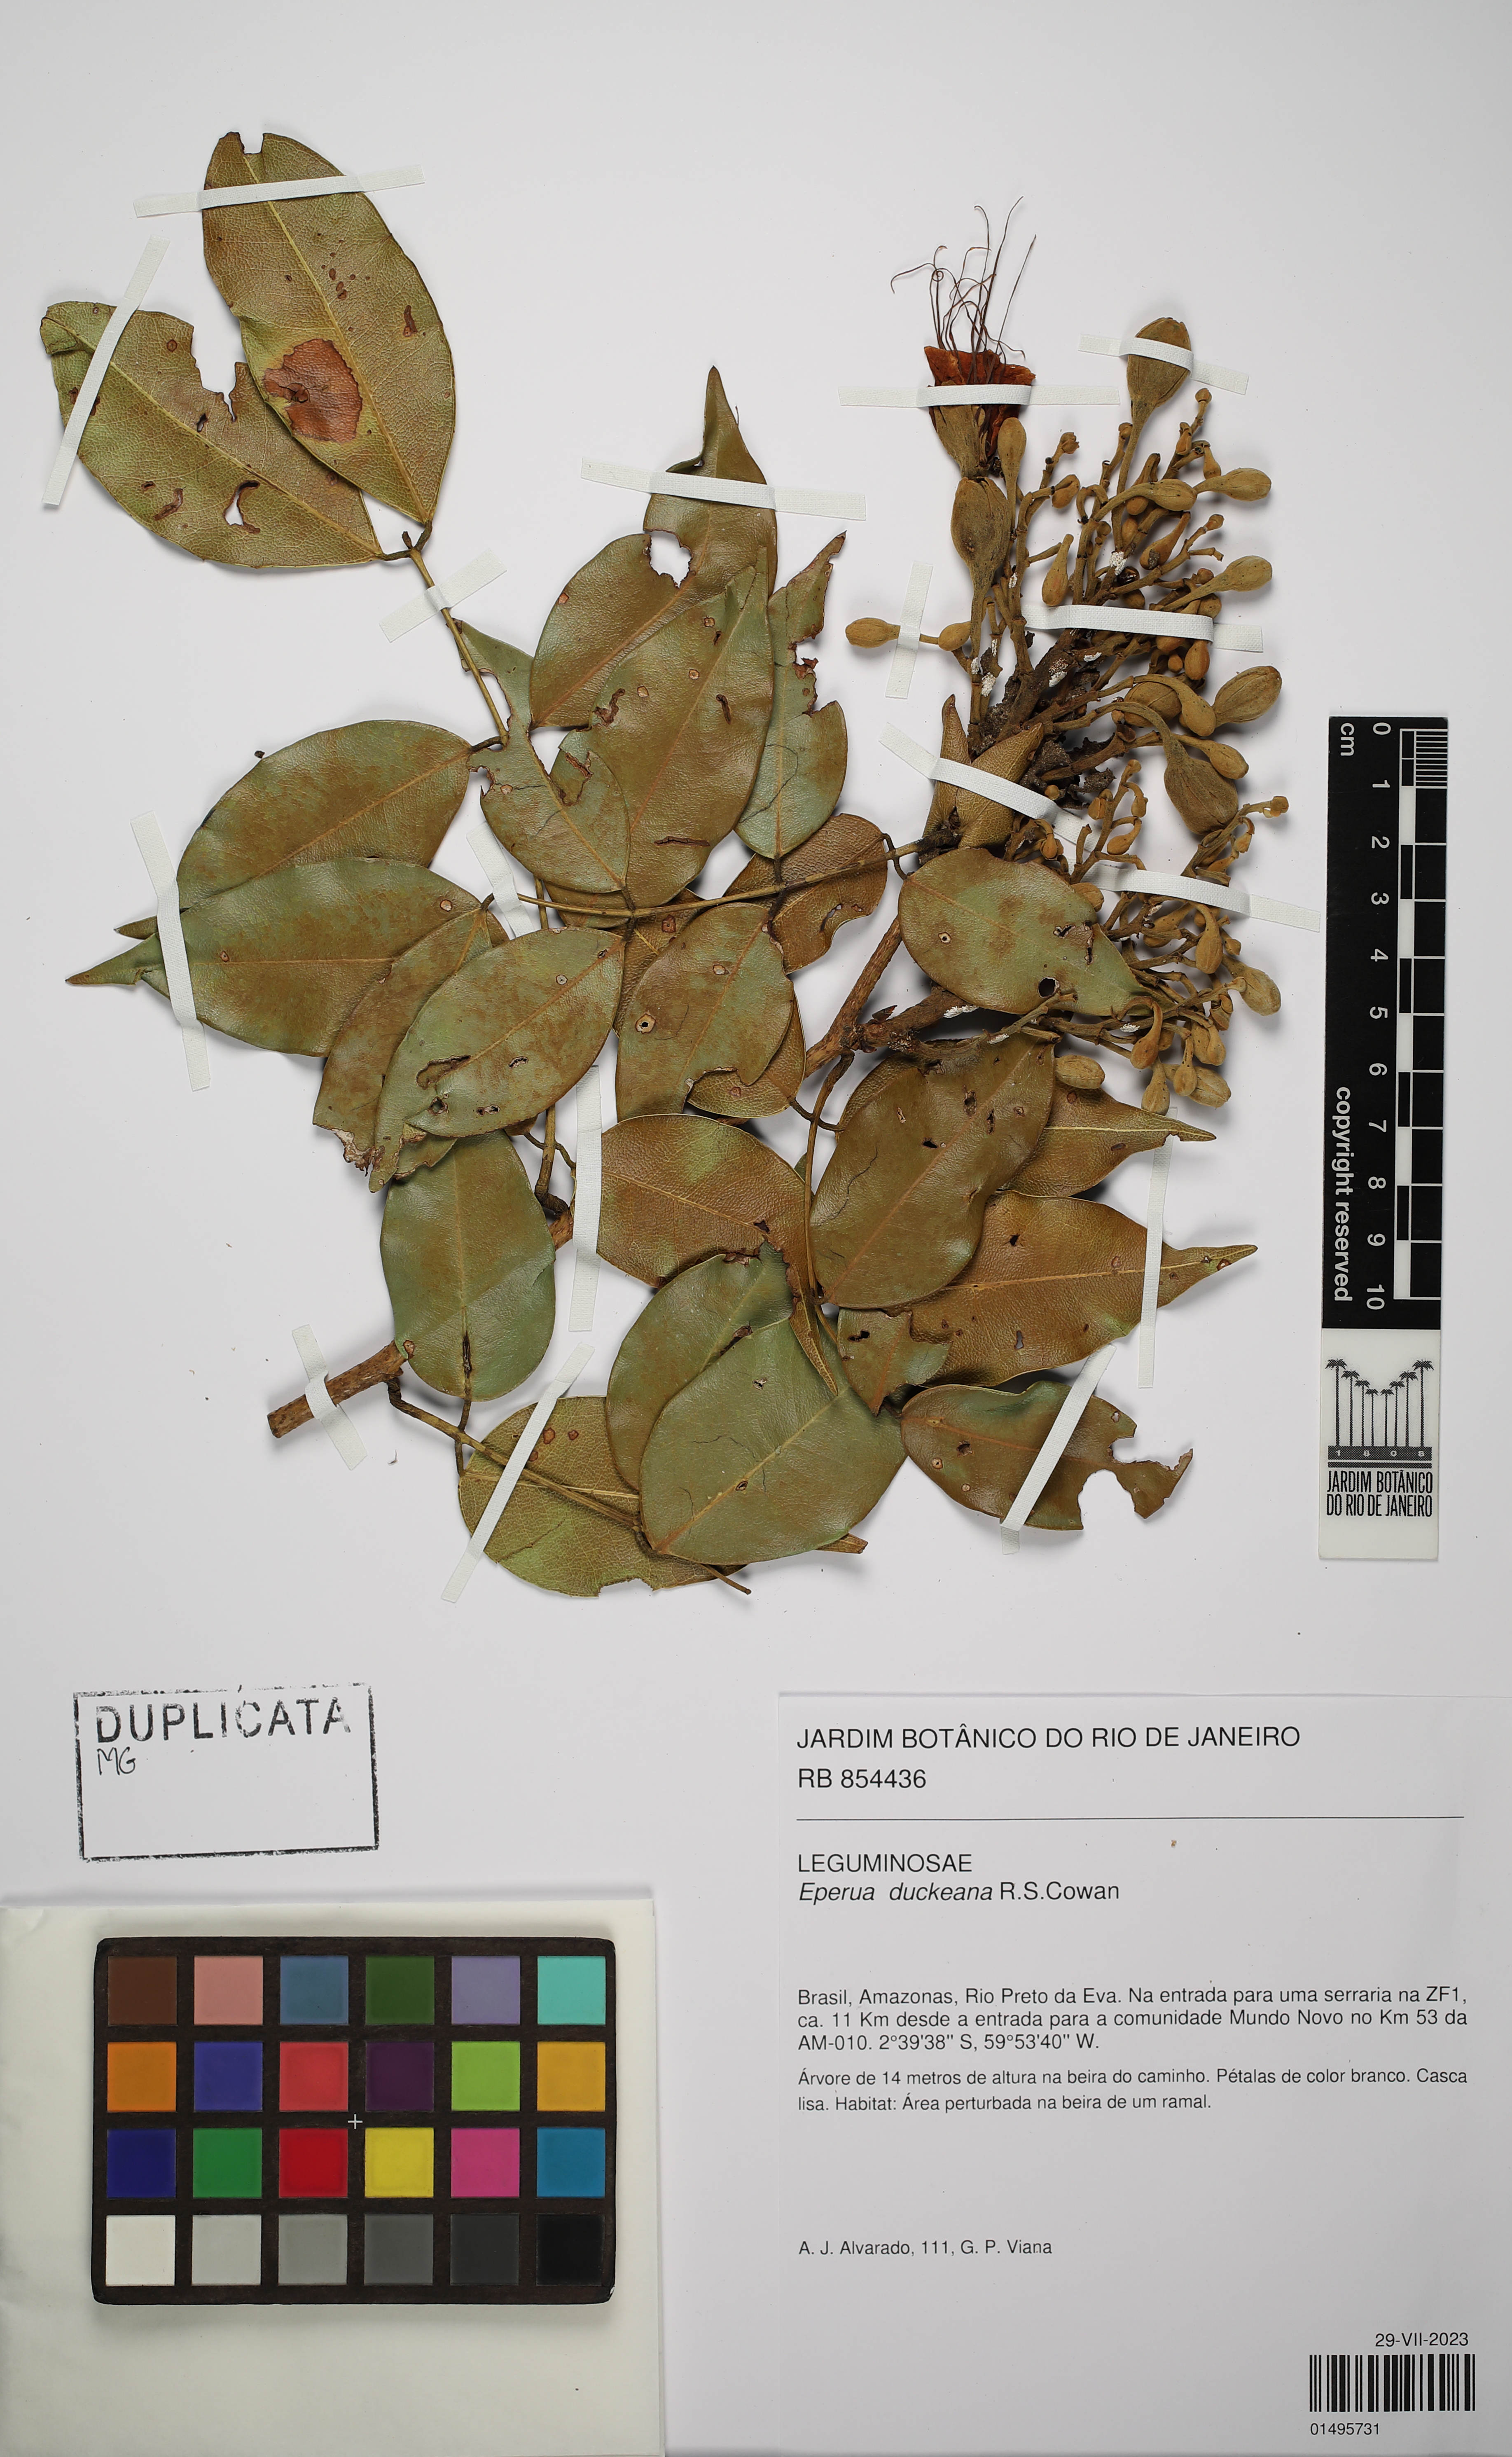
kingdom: Plantae
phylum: Tracheophyta
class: Magnoliopsida
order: Fabales
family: Fabaceae
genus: Eperua
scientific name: Eperua duckeana
